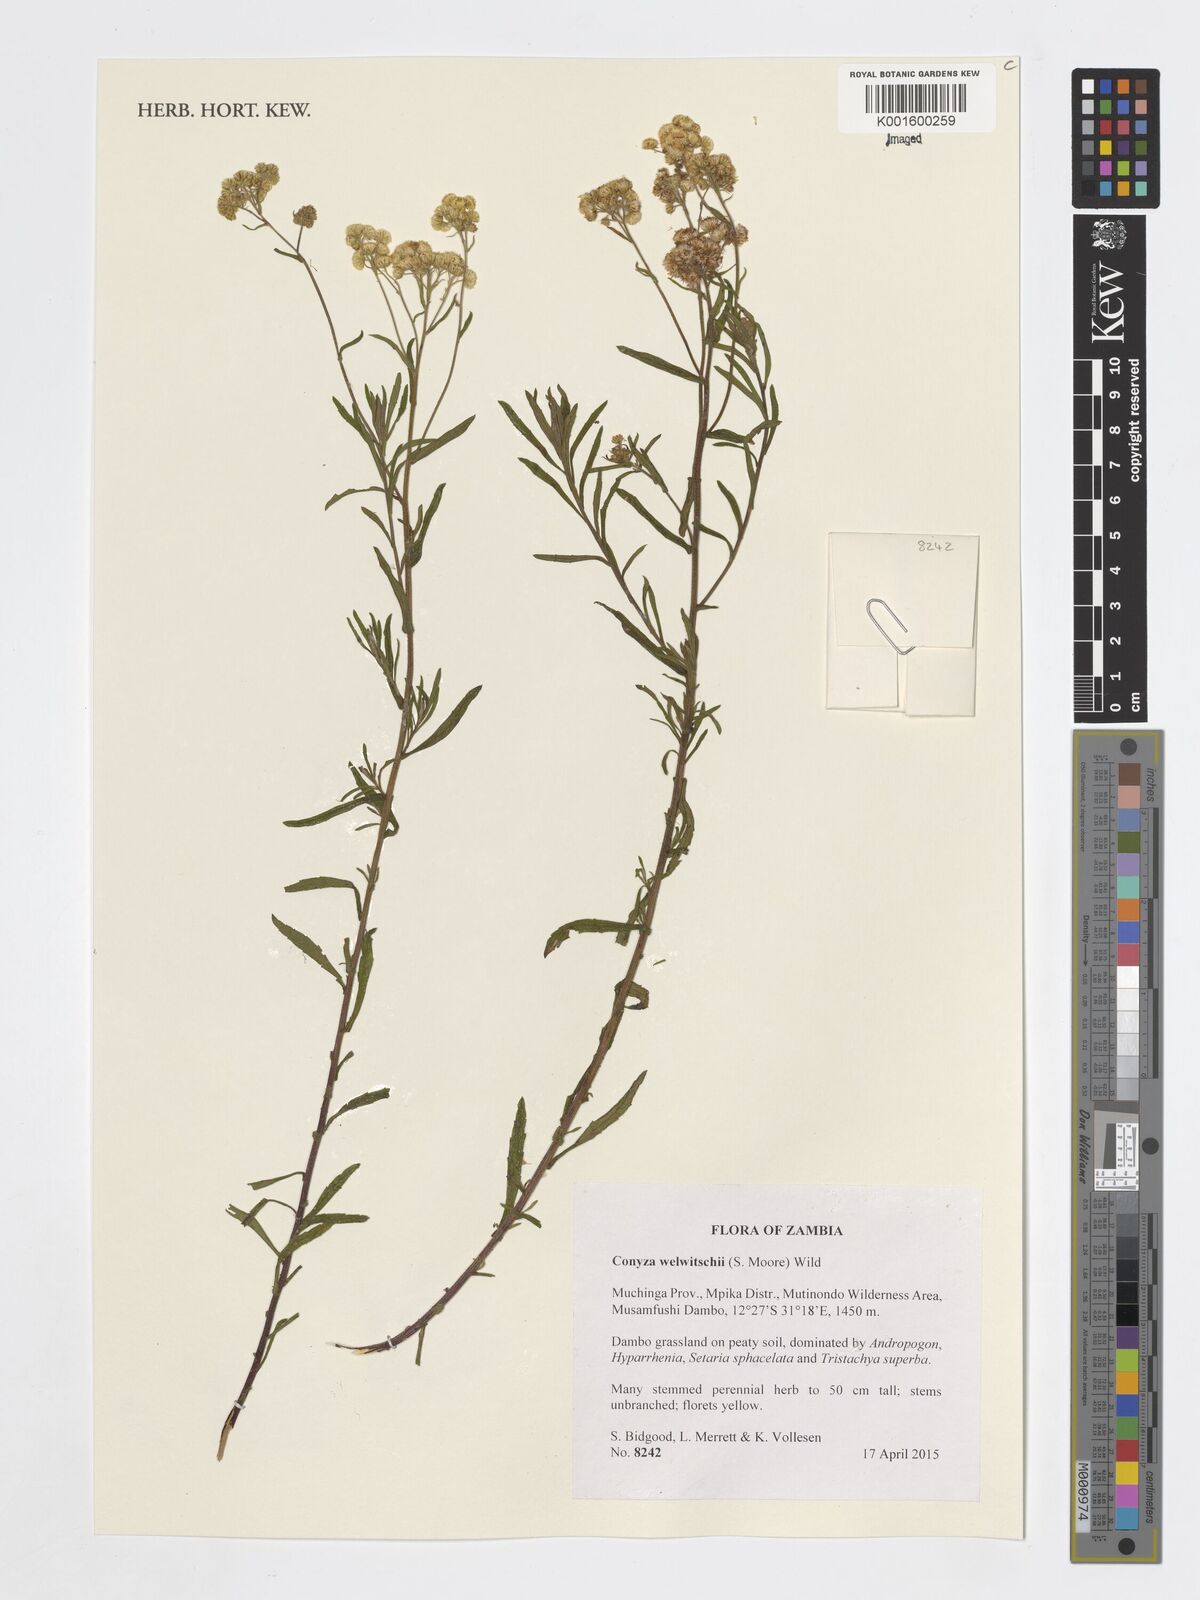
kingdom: Plantae
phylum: Tracheophyta
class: Magnoliopsida
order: Asterales
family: Asteraceae
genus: Nidorella
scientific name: Nidorella welwitschii
